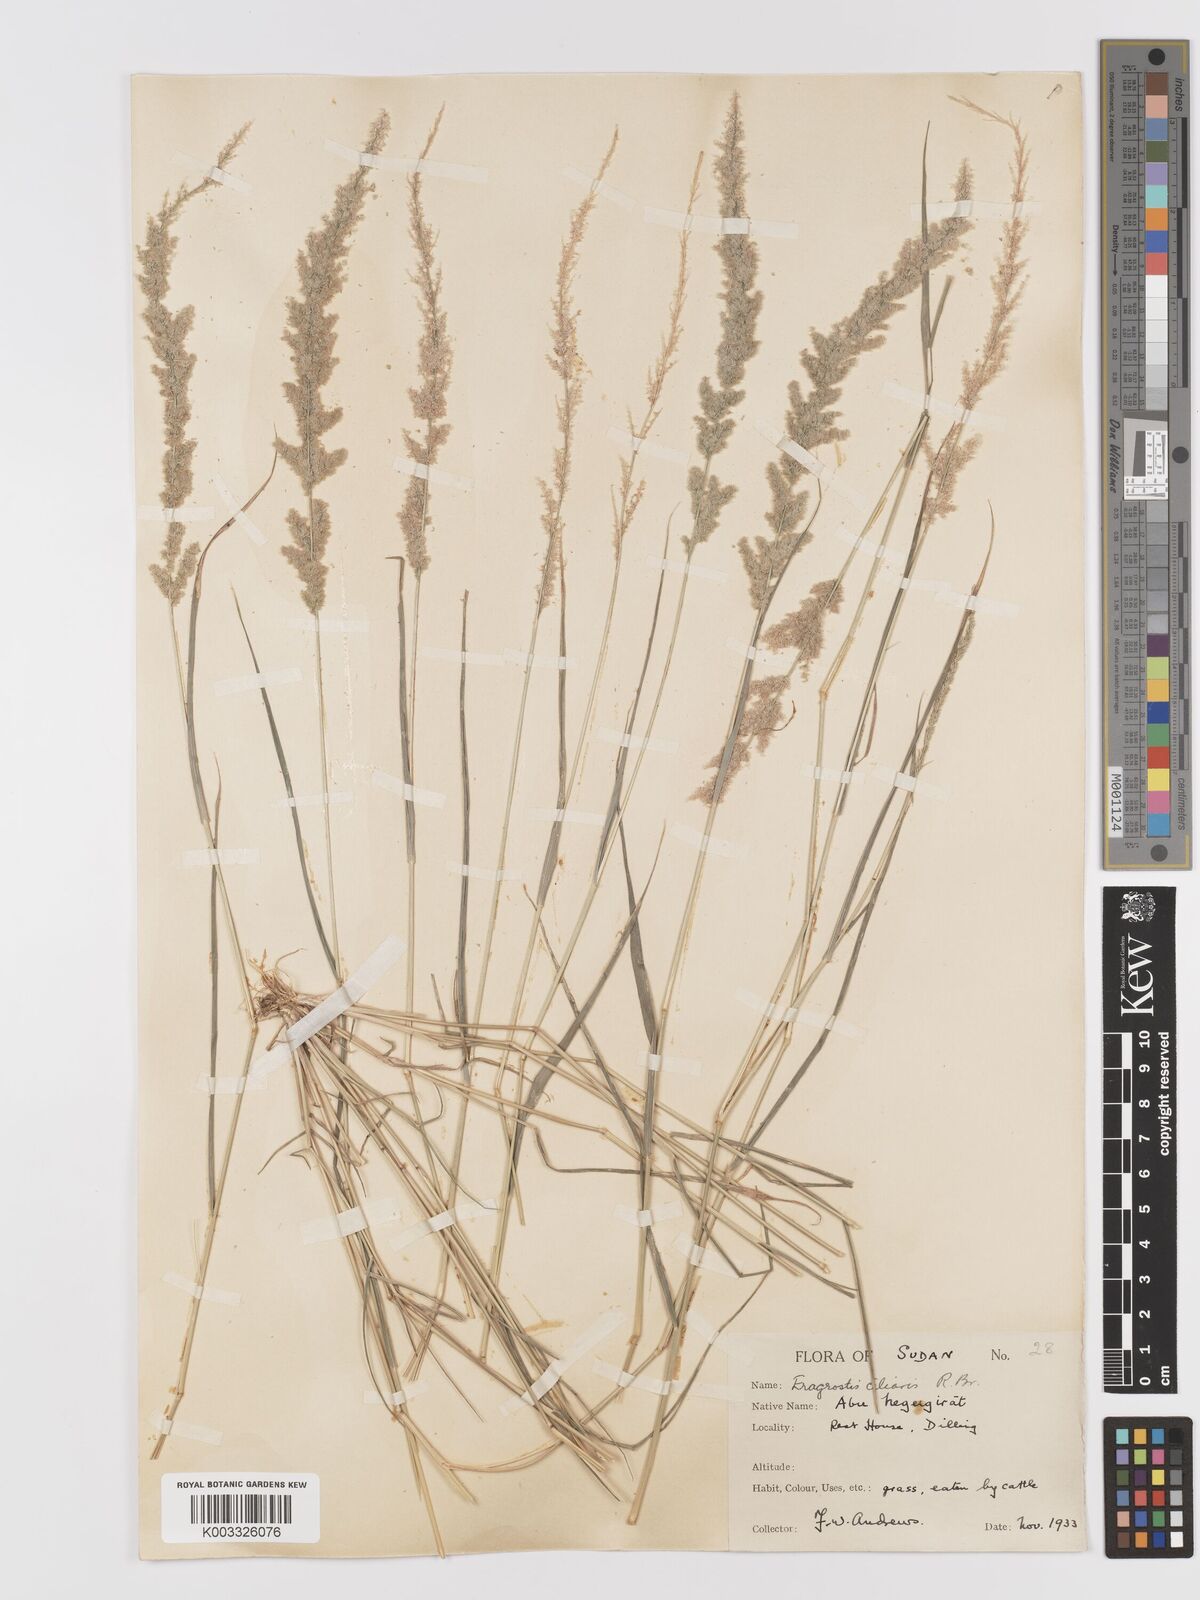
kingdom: Plantae
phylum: Tracheophyta
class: Liliopsida
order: Poales
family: Poaceae
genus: Eragrostis
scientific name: Eragrostis ciliaris
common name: Gophertail lovegrass
